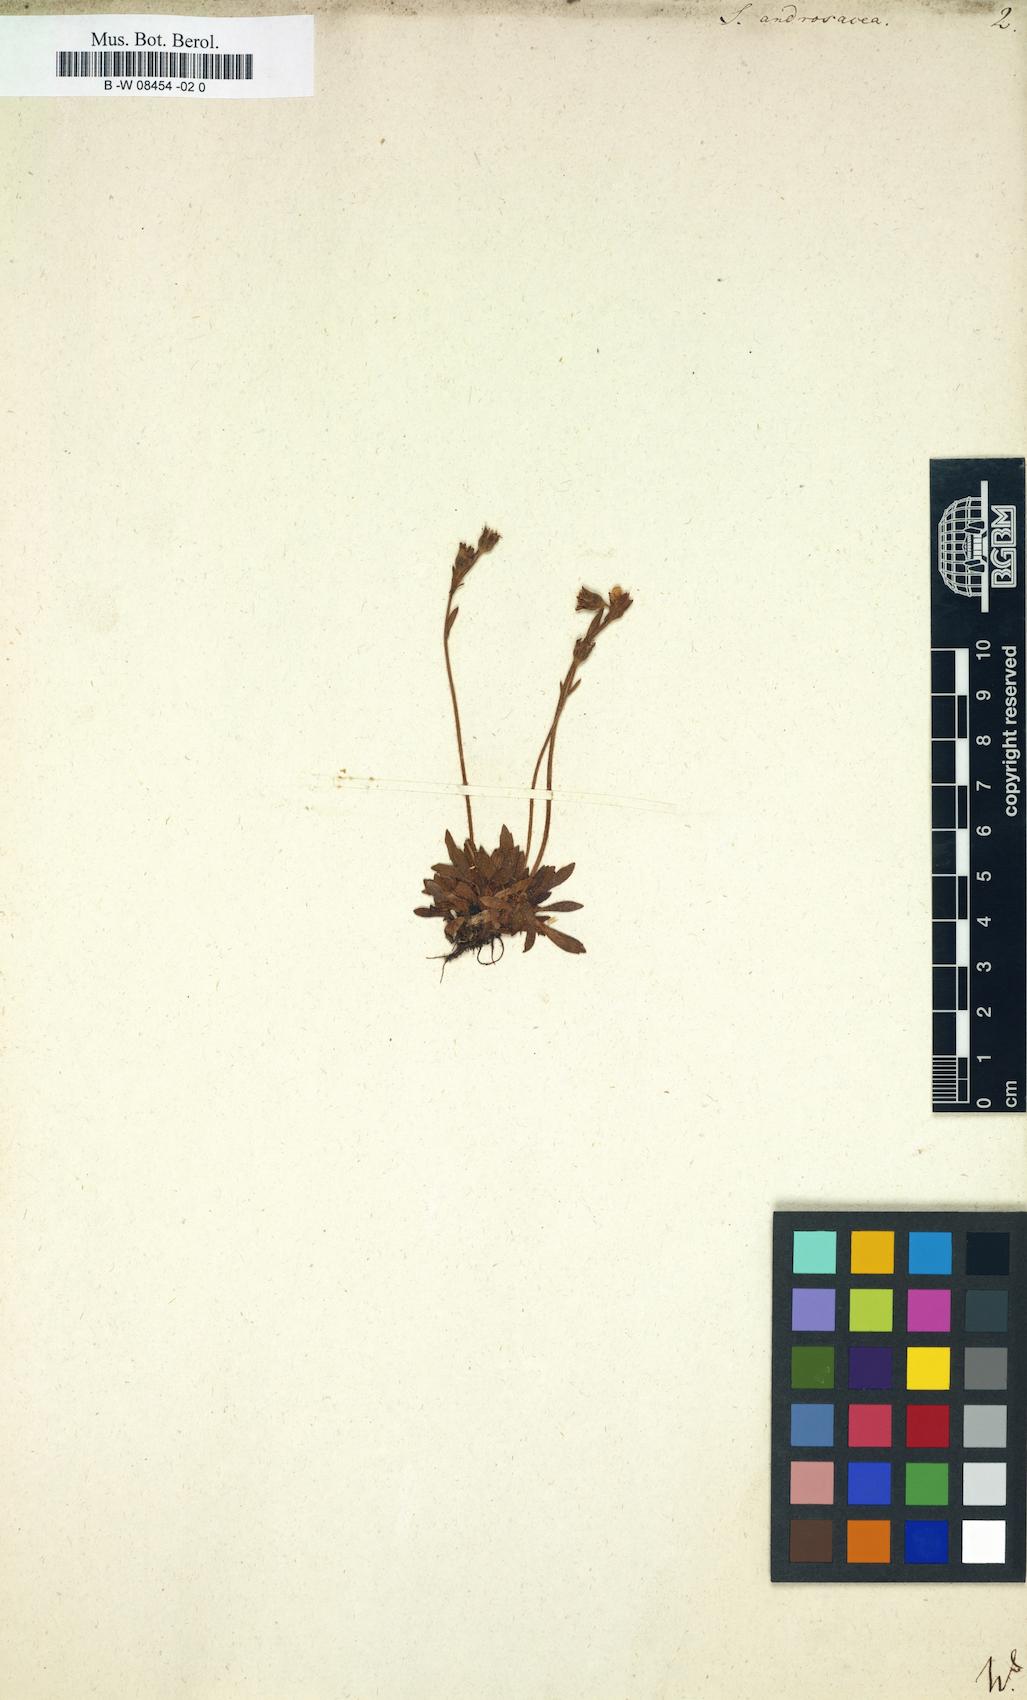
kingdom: Plantae
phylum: Tracheophyta
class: Magnoliopsida
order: Saxifragales
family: Saxifragaceae
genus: Saxifraga
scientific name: Saxifraga androsacea
